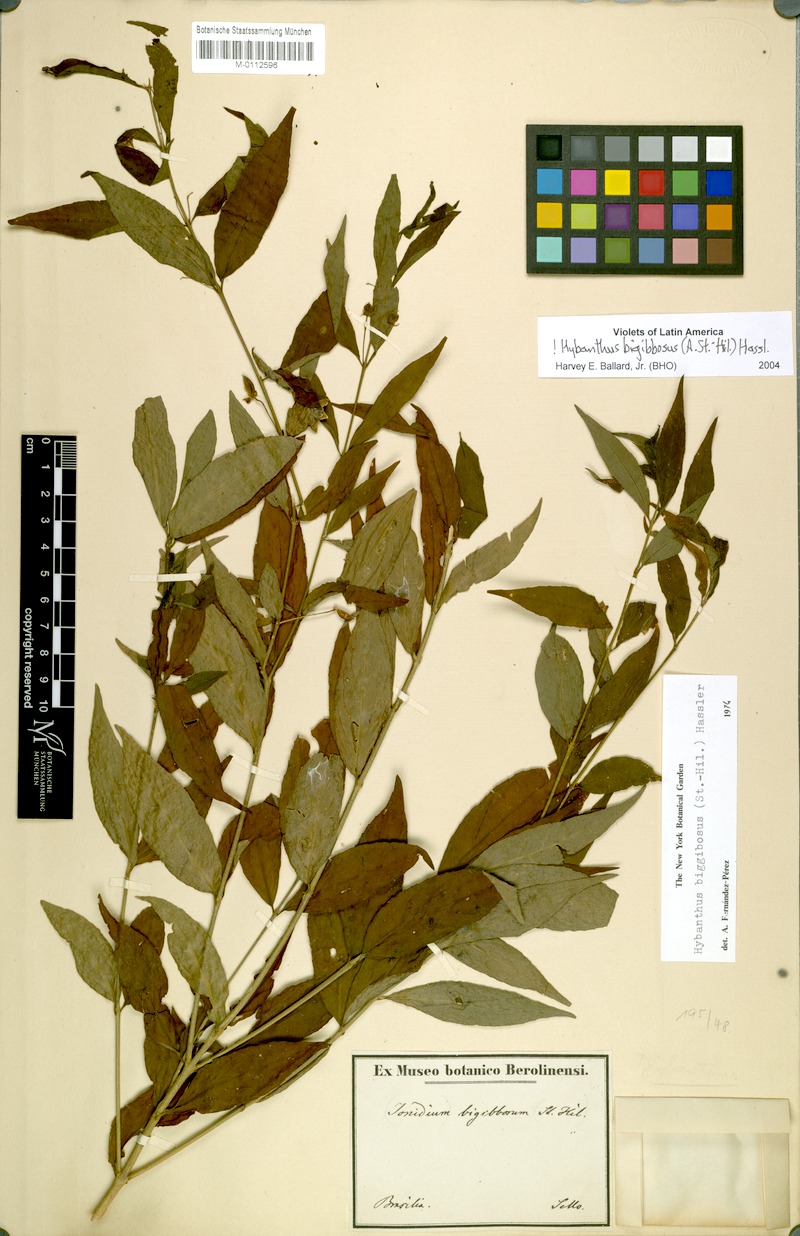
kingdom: Plantae
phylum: Tracheophyta
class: Magnoliopsida
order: Malpighiales
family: Violaceae
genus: Pombalia
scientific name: Pombalia bigibbosa
